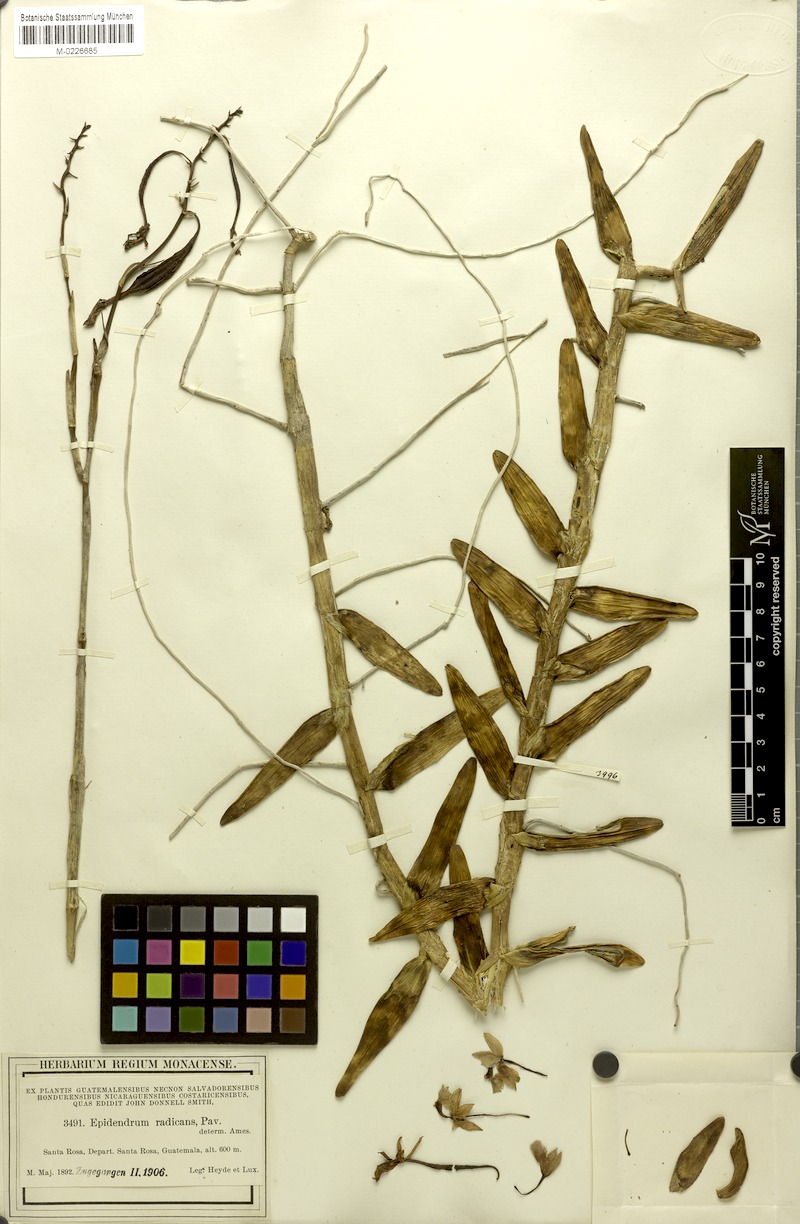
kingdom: Plantae
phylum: Tracheophyta
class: Liliopsida
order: Asparagales
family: Orchidaceae
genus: Epidendrum
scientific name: Epidendrum radicans
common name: Fire star orchid
